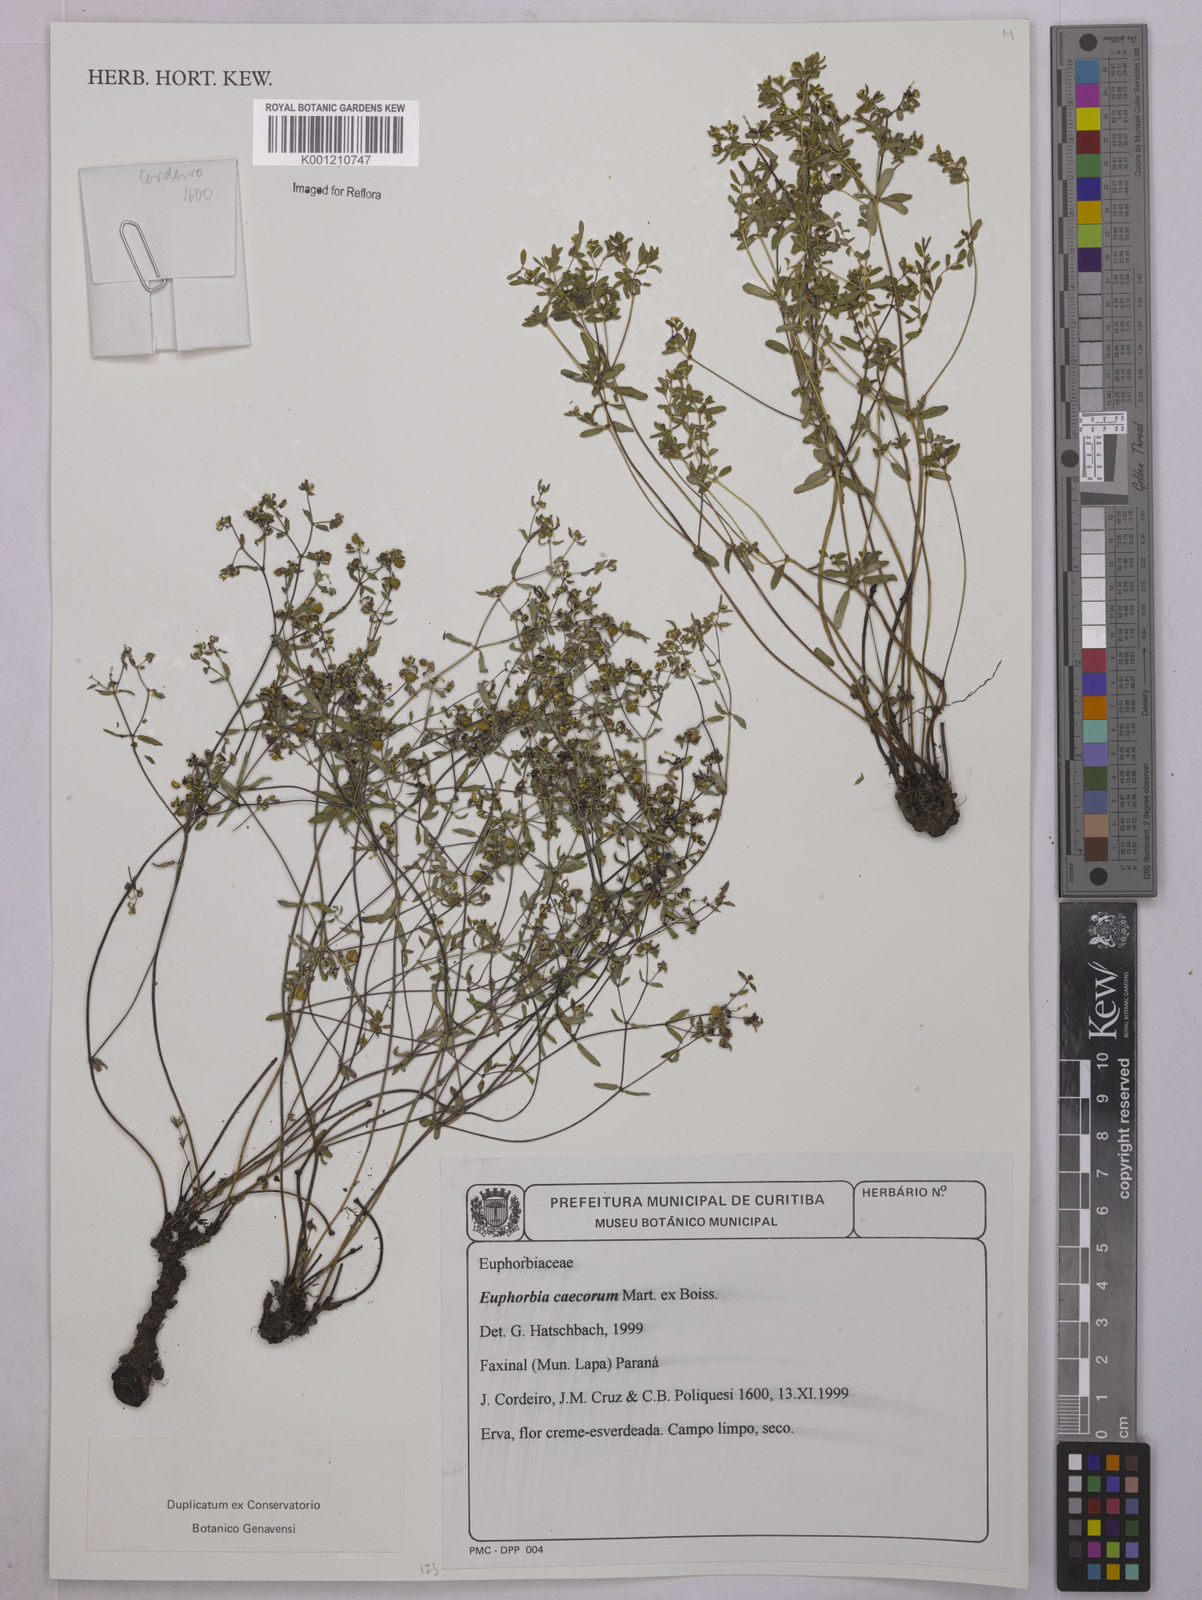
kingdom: Plantae
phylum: Tracheophyta
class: Magnoliopsida
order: Malpighiales
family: Euphorbiaceae
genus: Euphorbia
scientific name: Euphorbia potentilloides
